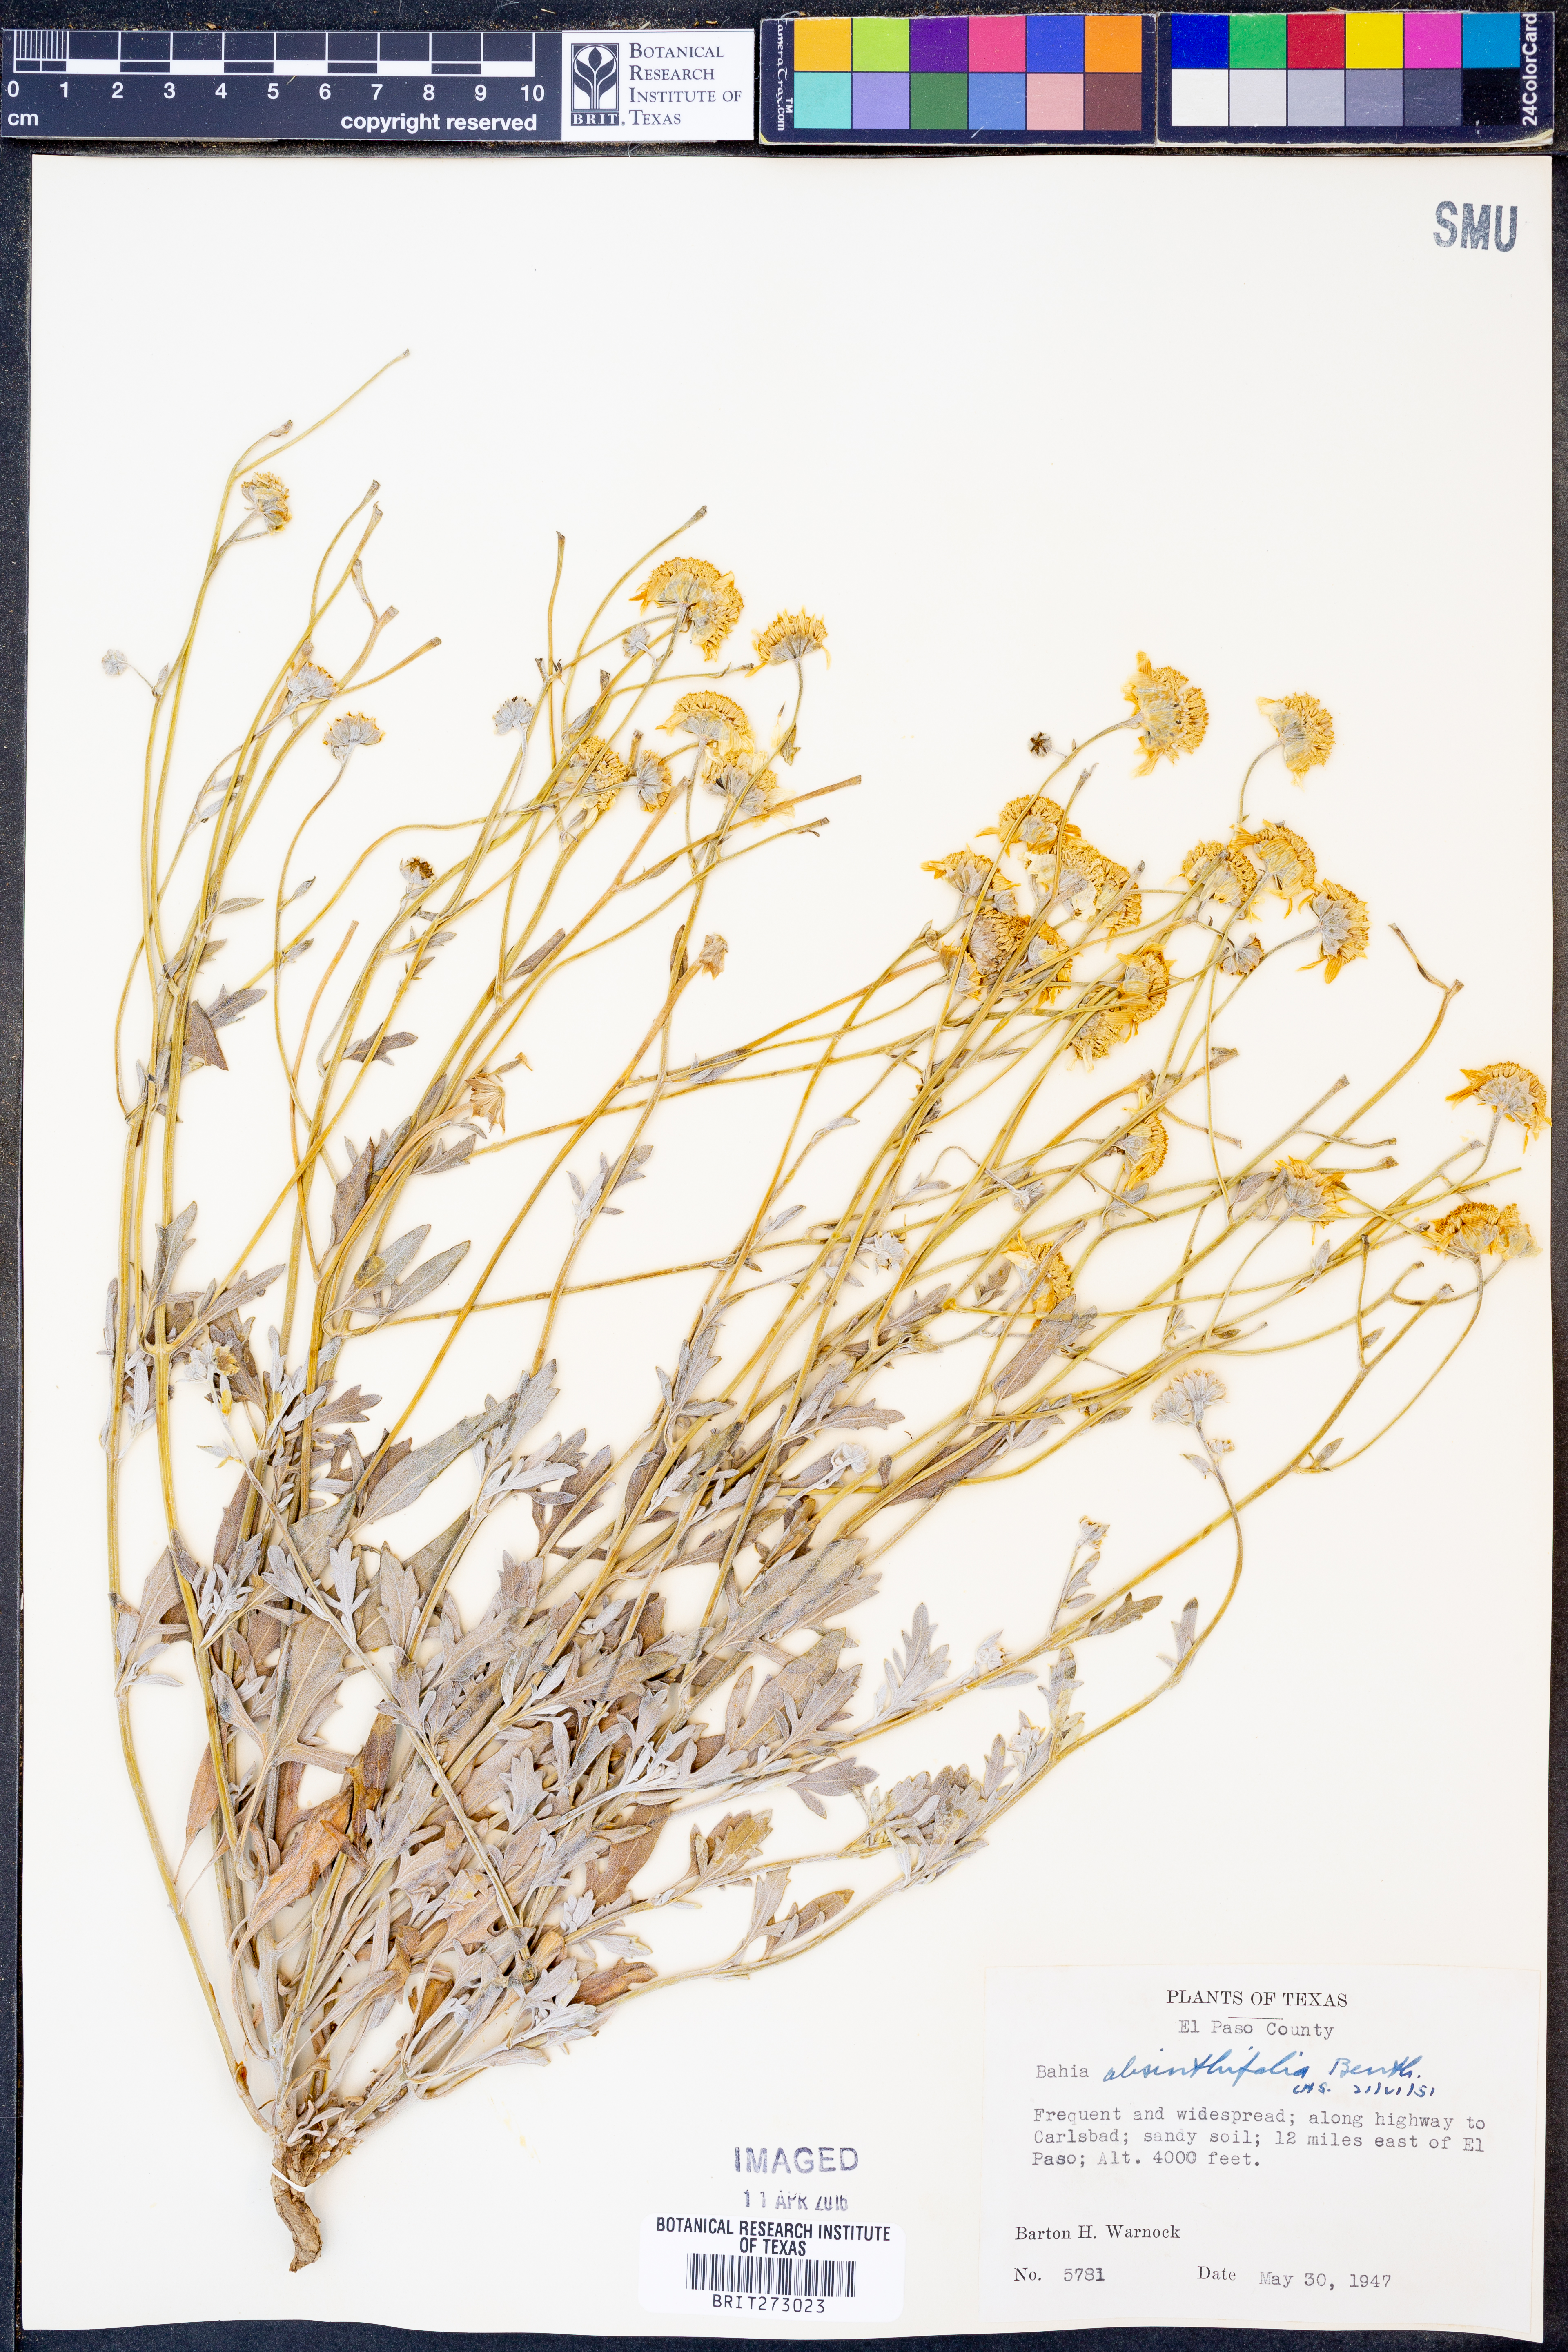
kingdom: Plantae
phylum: Tracheophyta
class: Magnoliopsida
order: Asterales
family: Asteraceae
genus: Picradeniopsis
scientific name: Picradeniopsis absinthifolia
